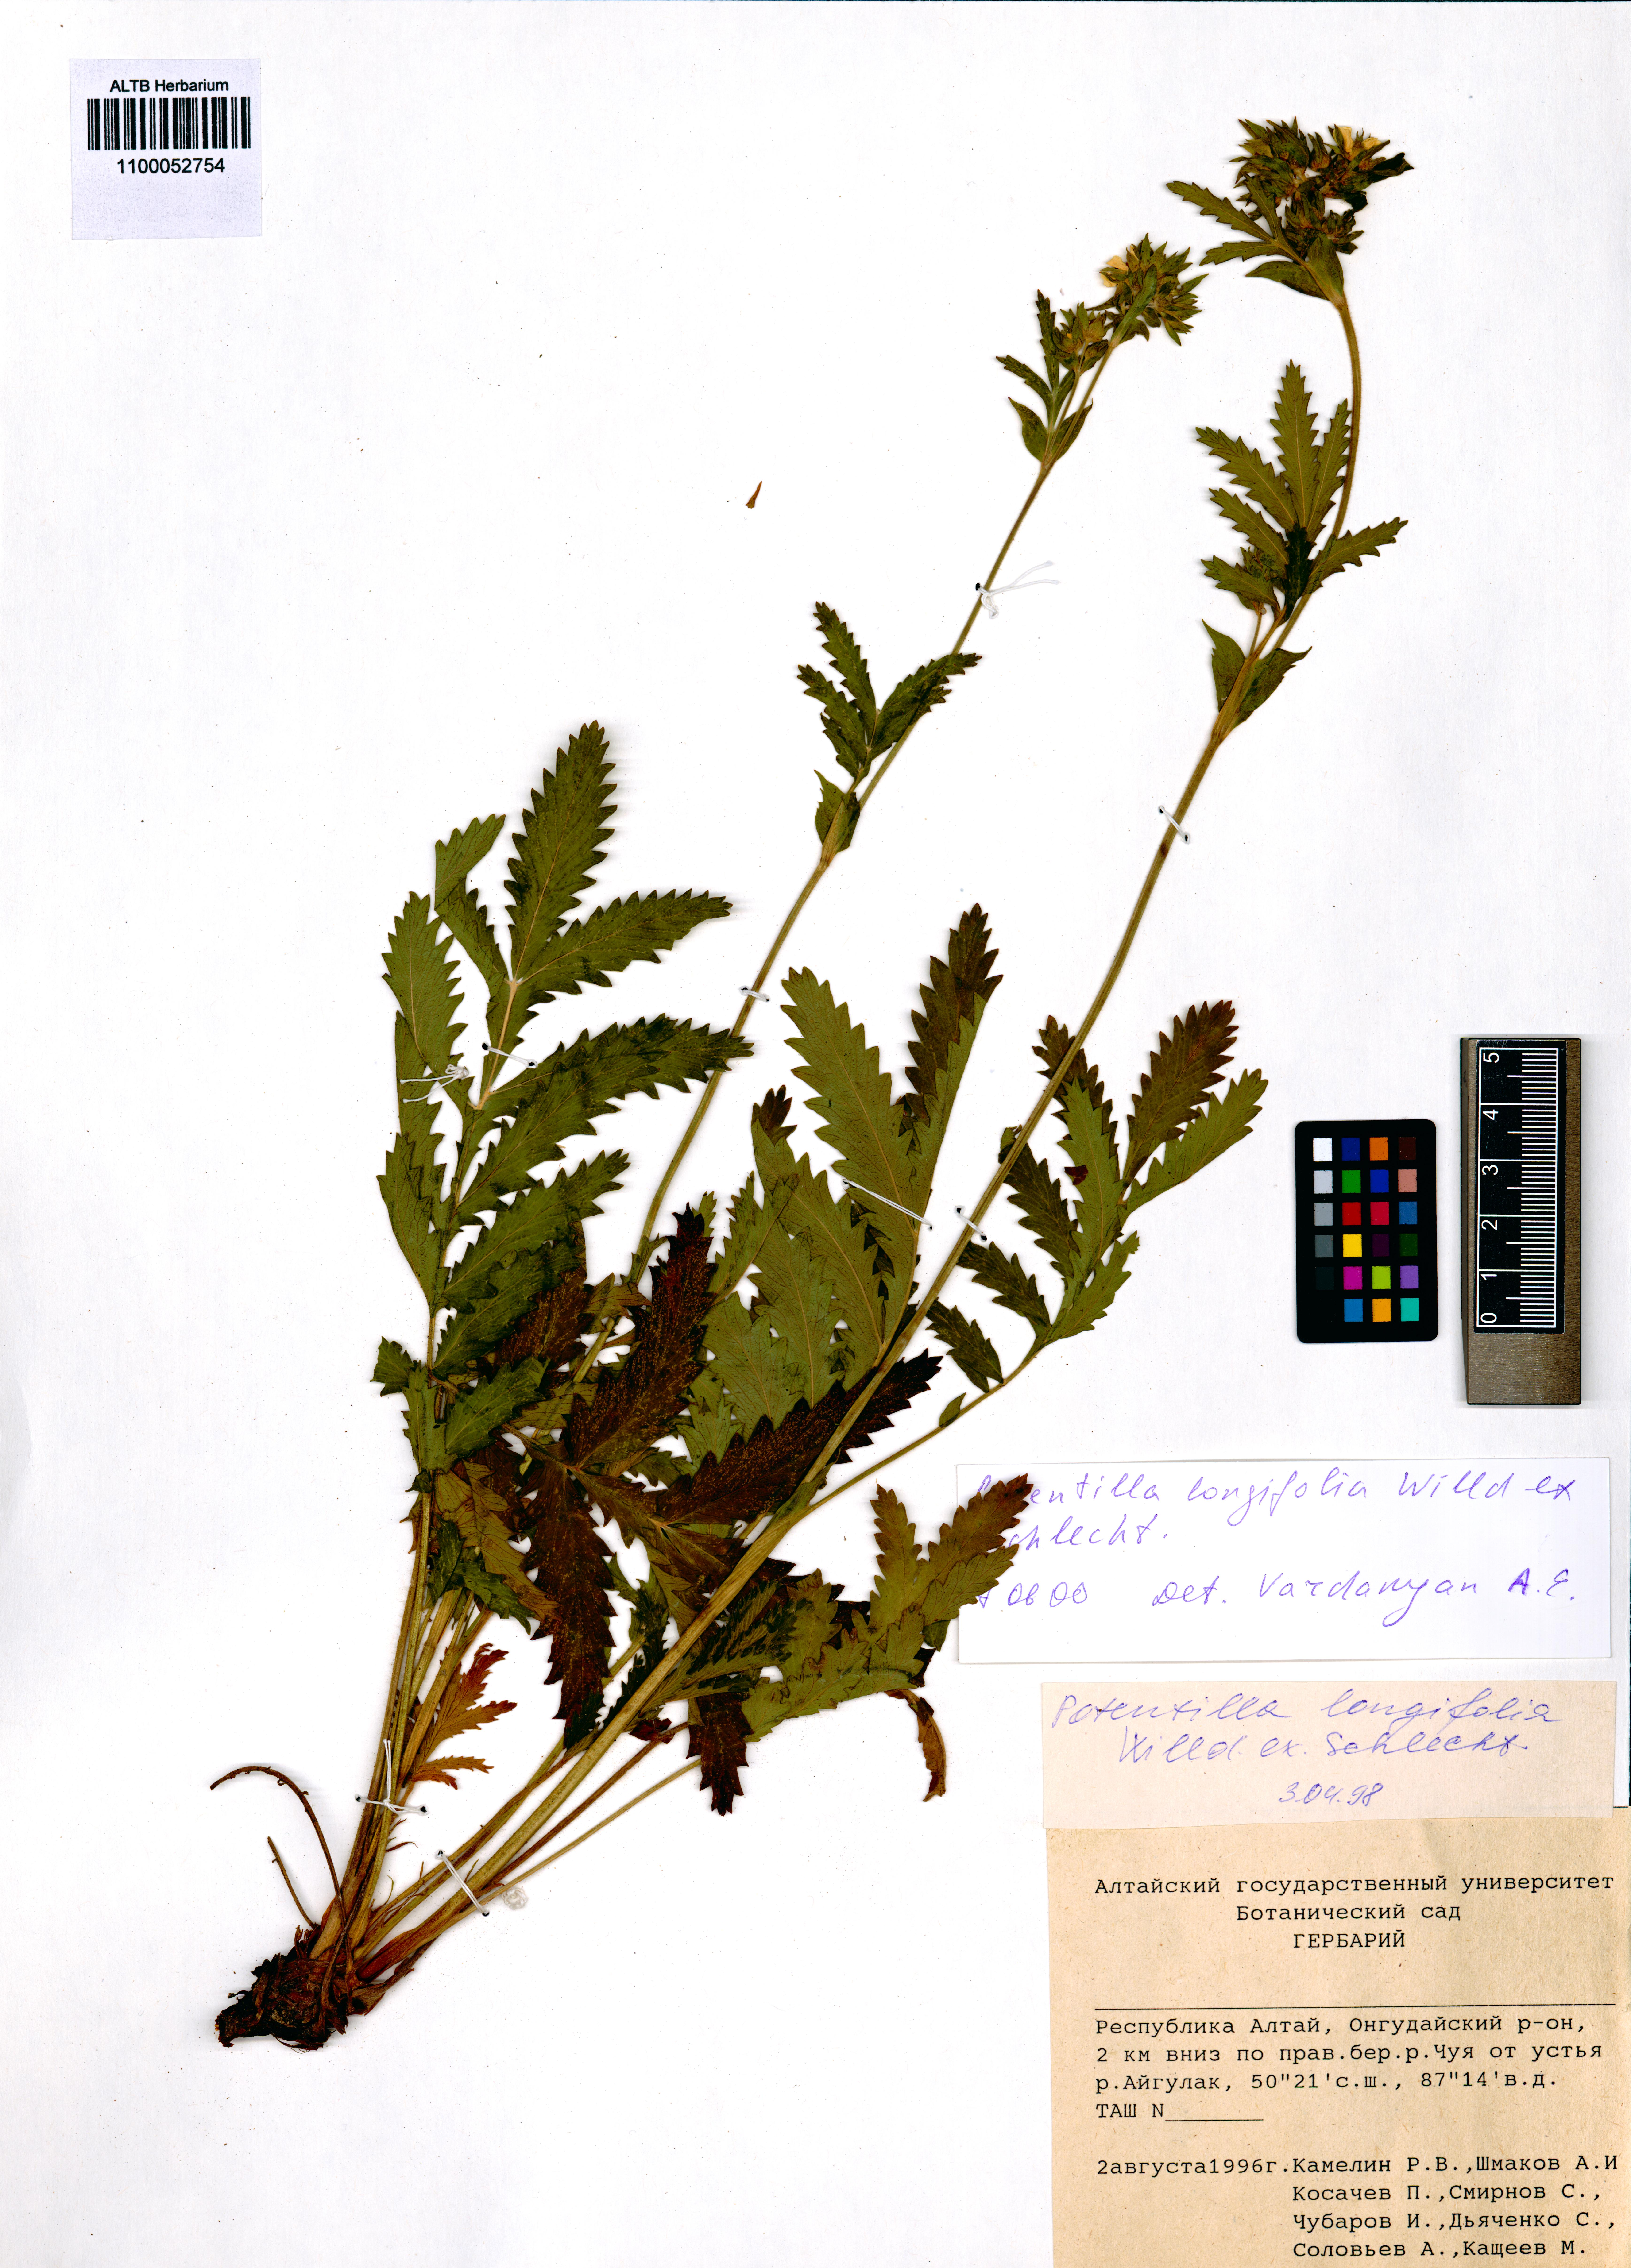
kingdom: Plantae
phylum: Tracheophyta
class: Magnoliopsida
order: Rosales
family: Rosaceae
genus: Potentilla
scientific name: Potentilla longifolia
